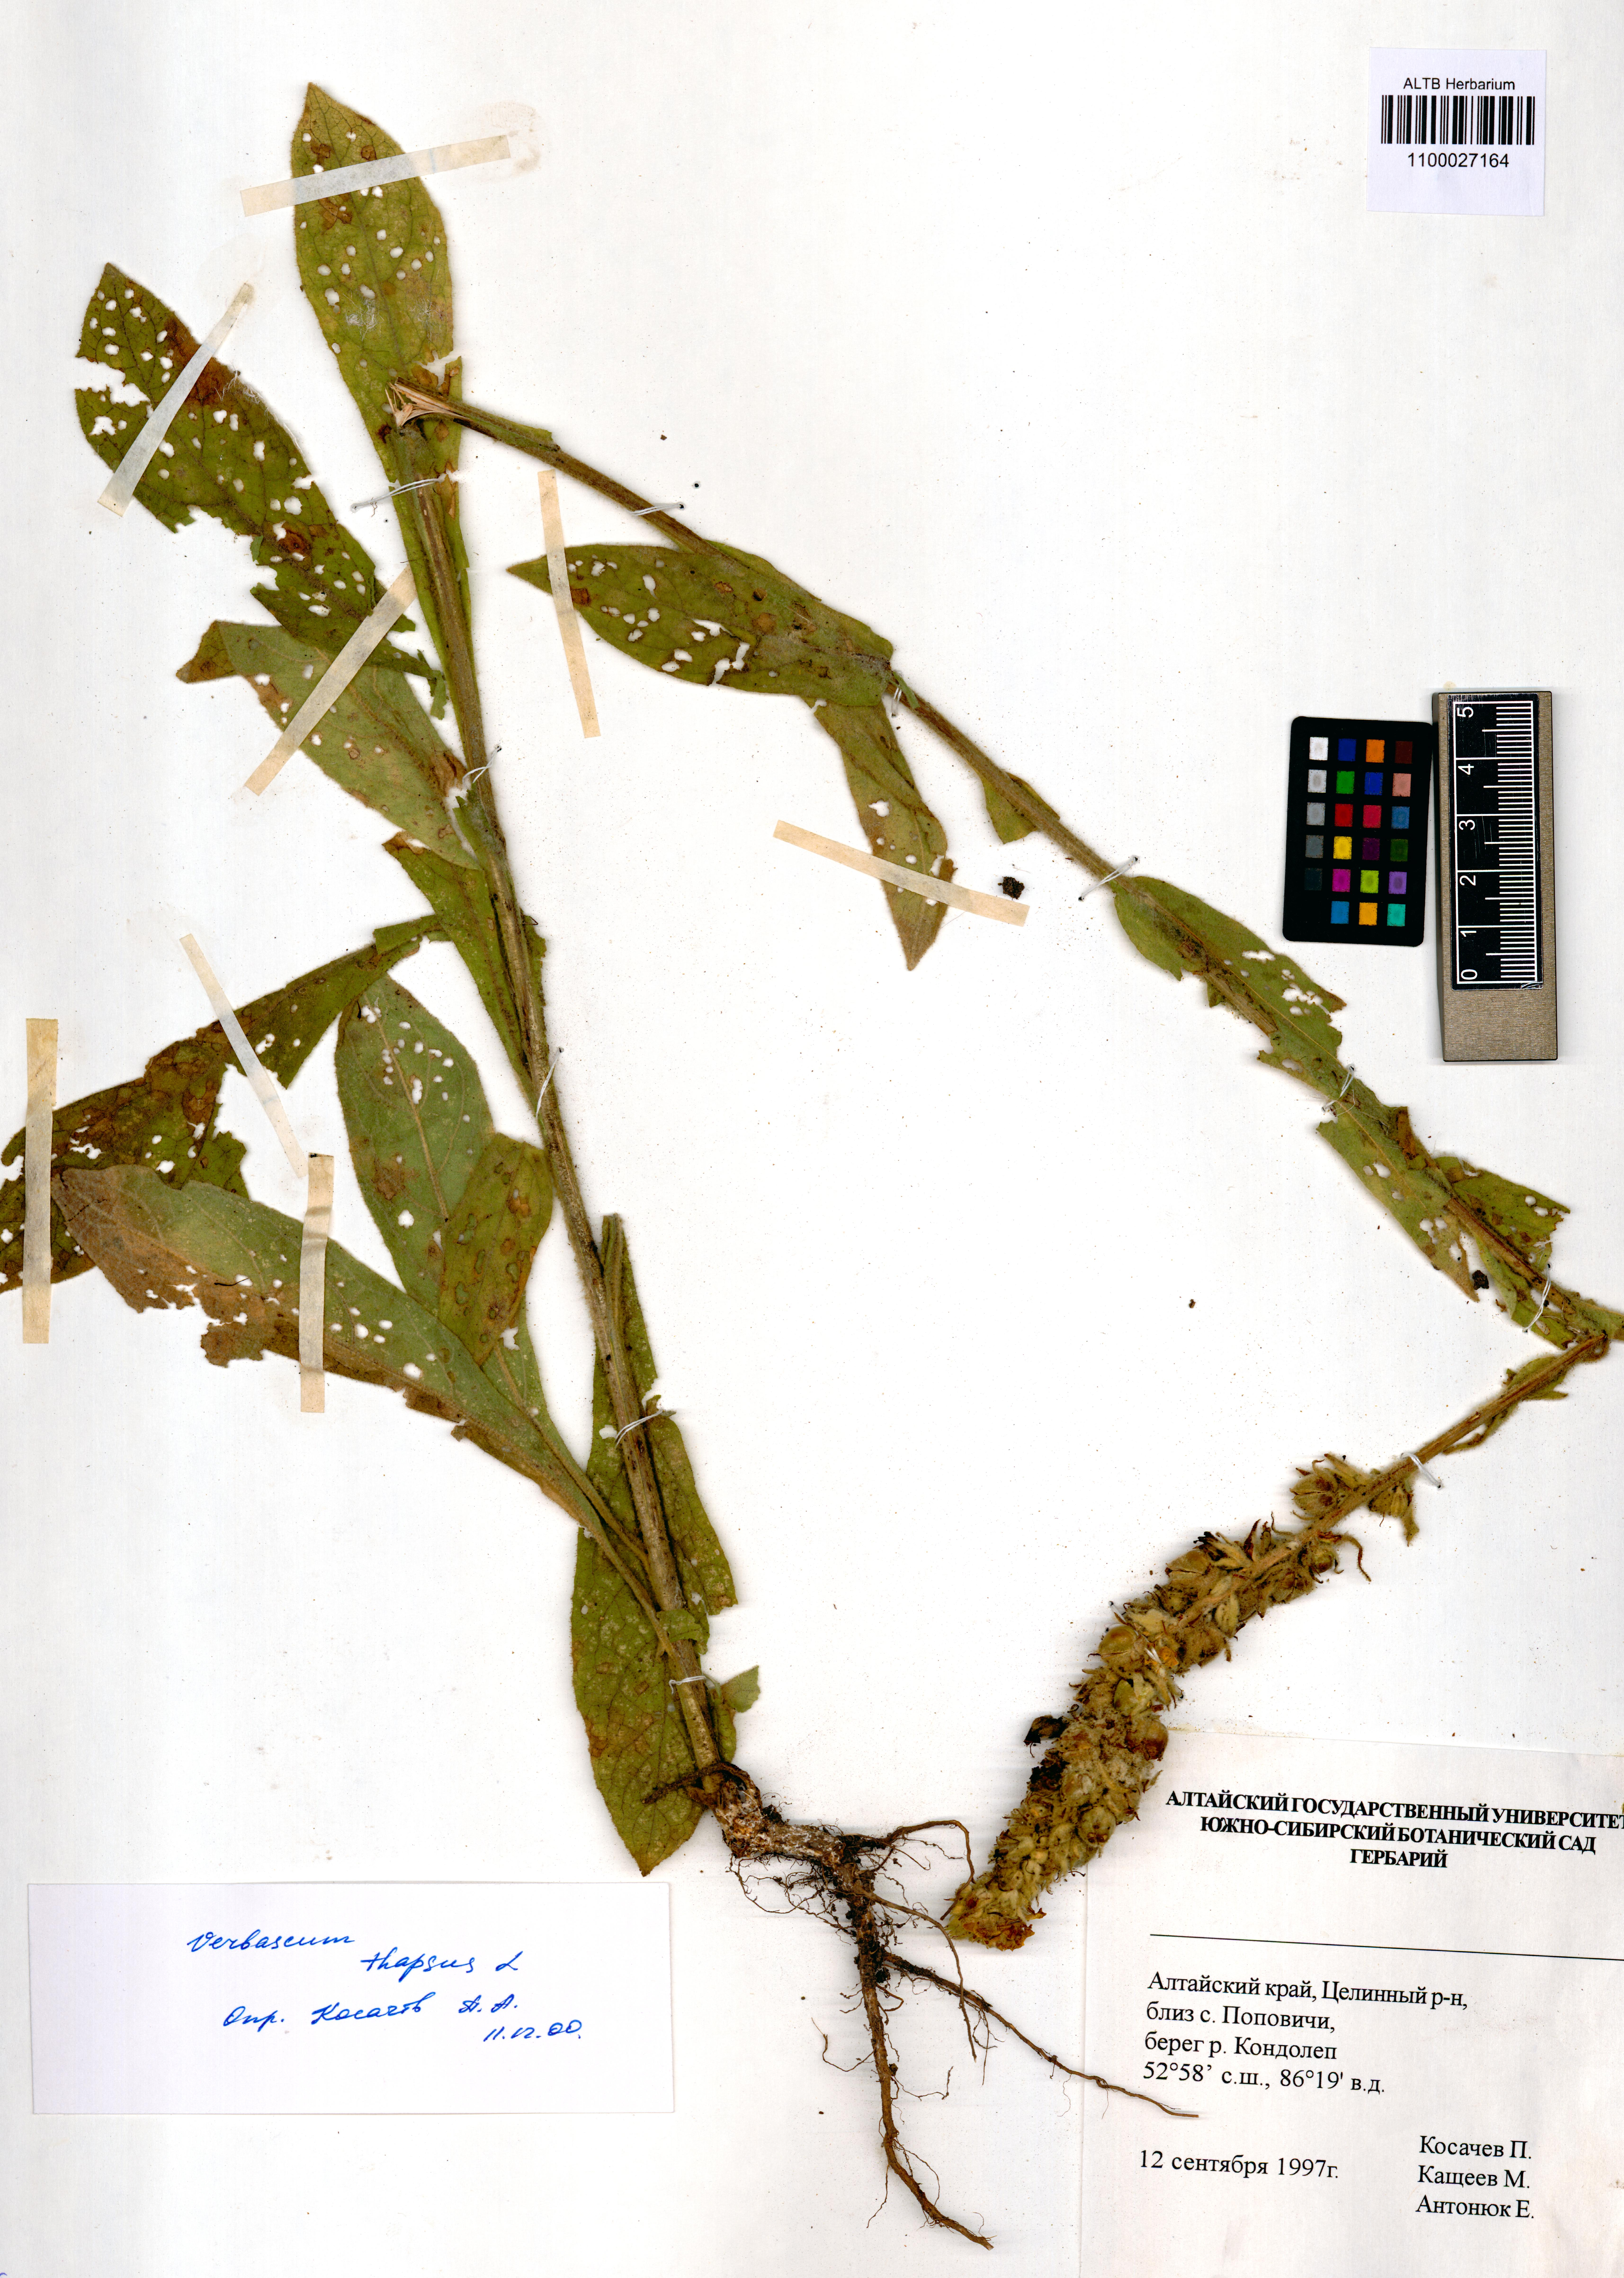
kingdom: Plantae
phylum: Tracheophyta
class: Magnoliopsida
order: Lamiales
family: Scrophulariaceae
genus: Verbascum
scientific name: Verbascum thapsus
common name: Common mullein
